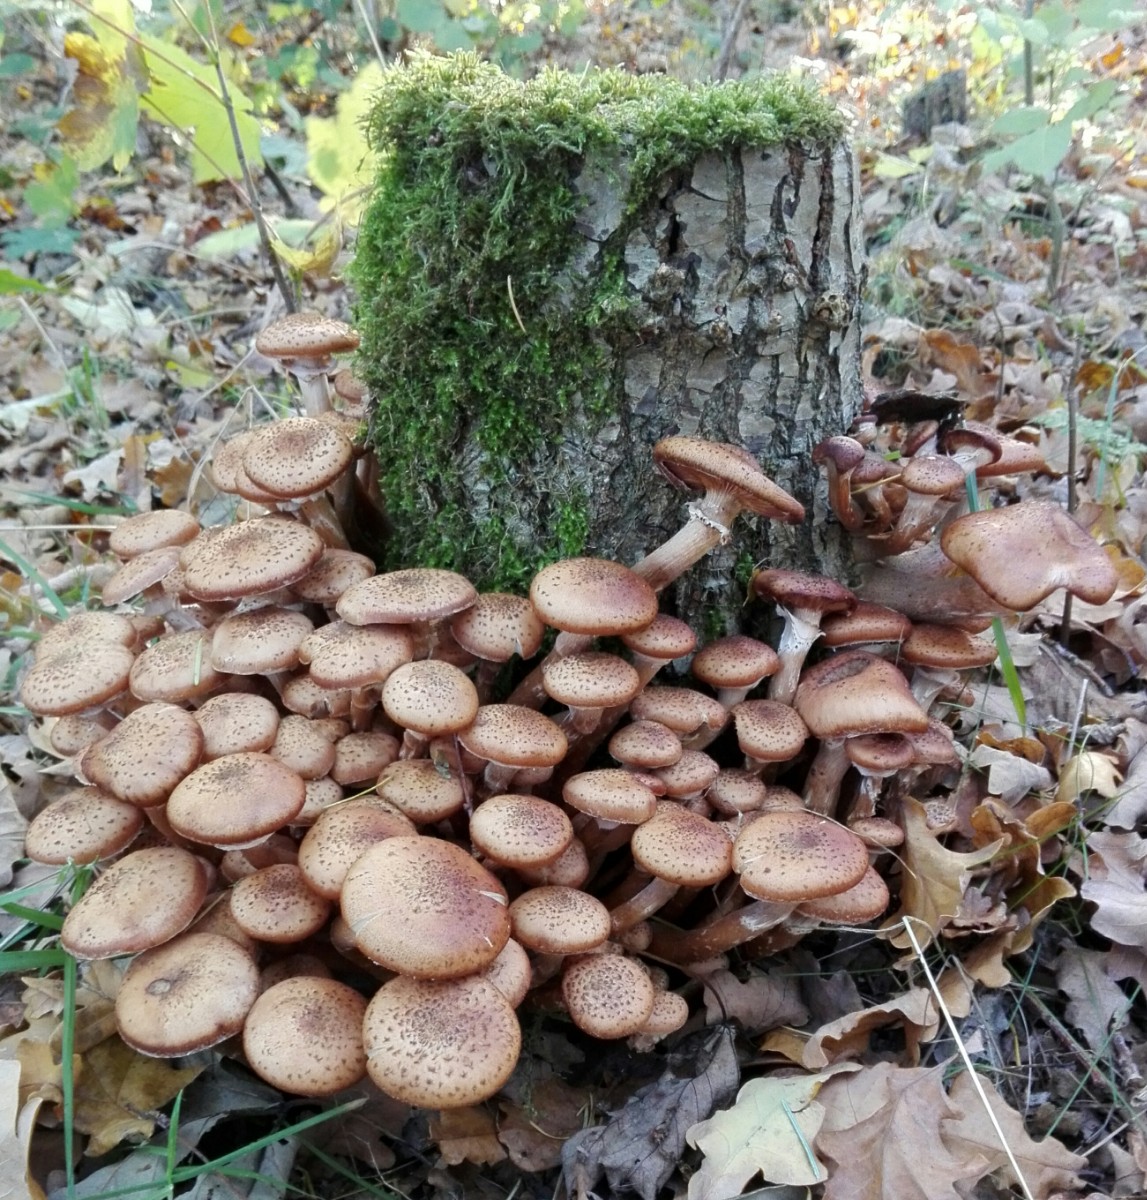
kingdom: Fungi
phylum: Basidiomycota
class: Agaricomycetes
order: Agaricales
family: Physalacriaceae
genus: Armillaria
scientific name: Armillaria ostoyae
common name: mørk honningsvamp
